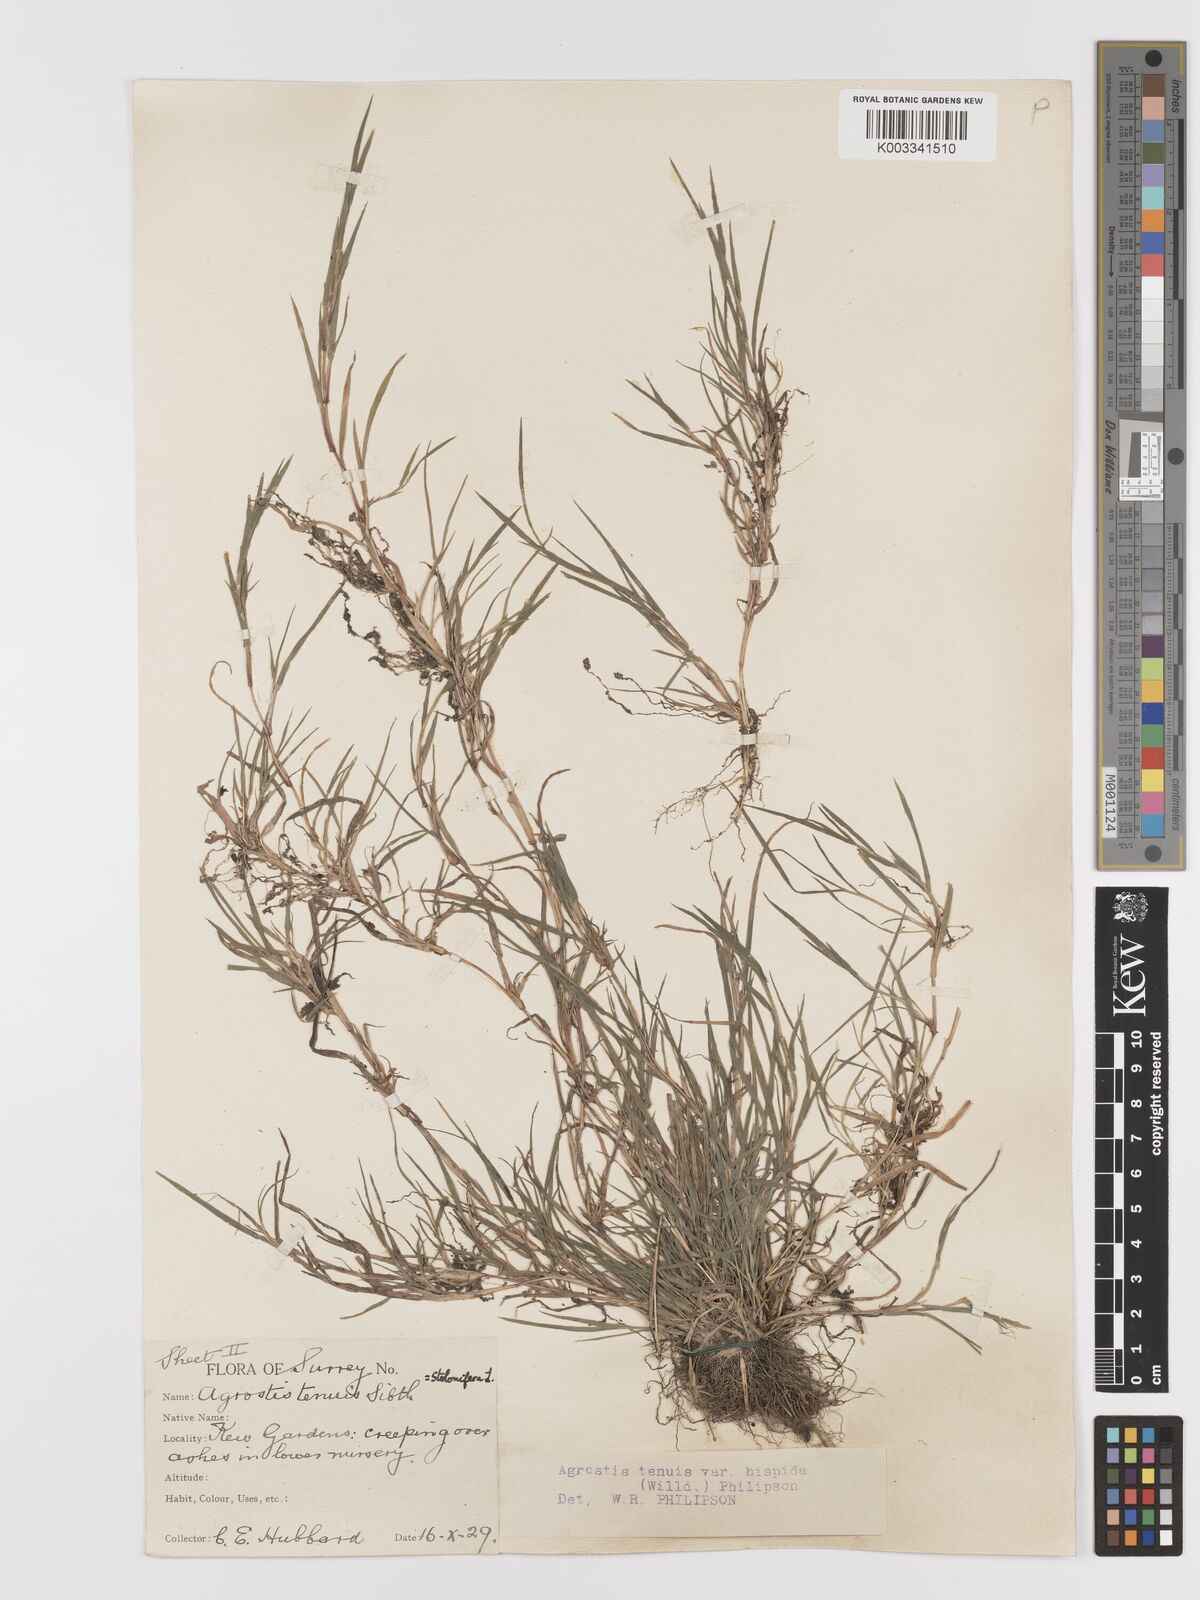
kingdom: Plantae
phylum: Tracheophyta
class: Liliopsida
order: Poales
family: Poaceae
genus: Agrostis
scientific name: Agrostis stolonifera
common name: Creeping bentgrass
